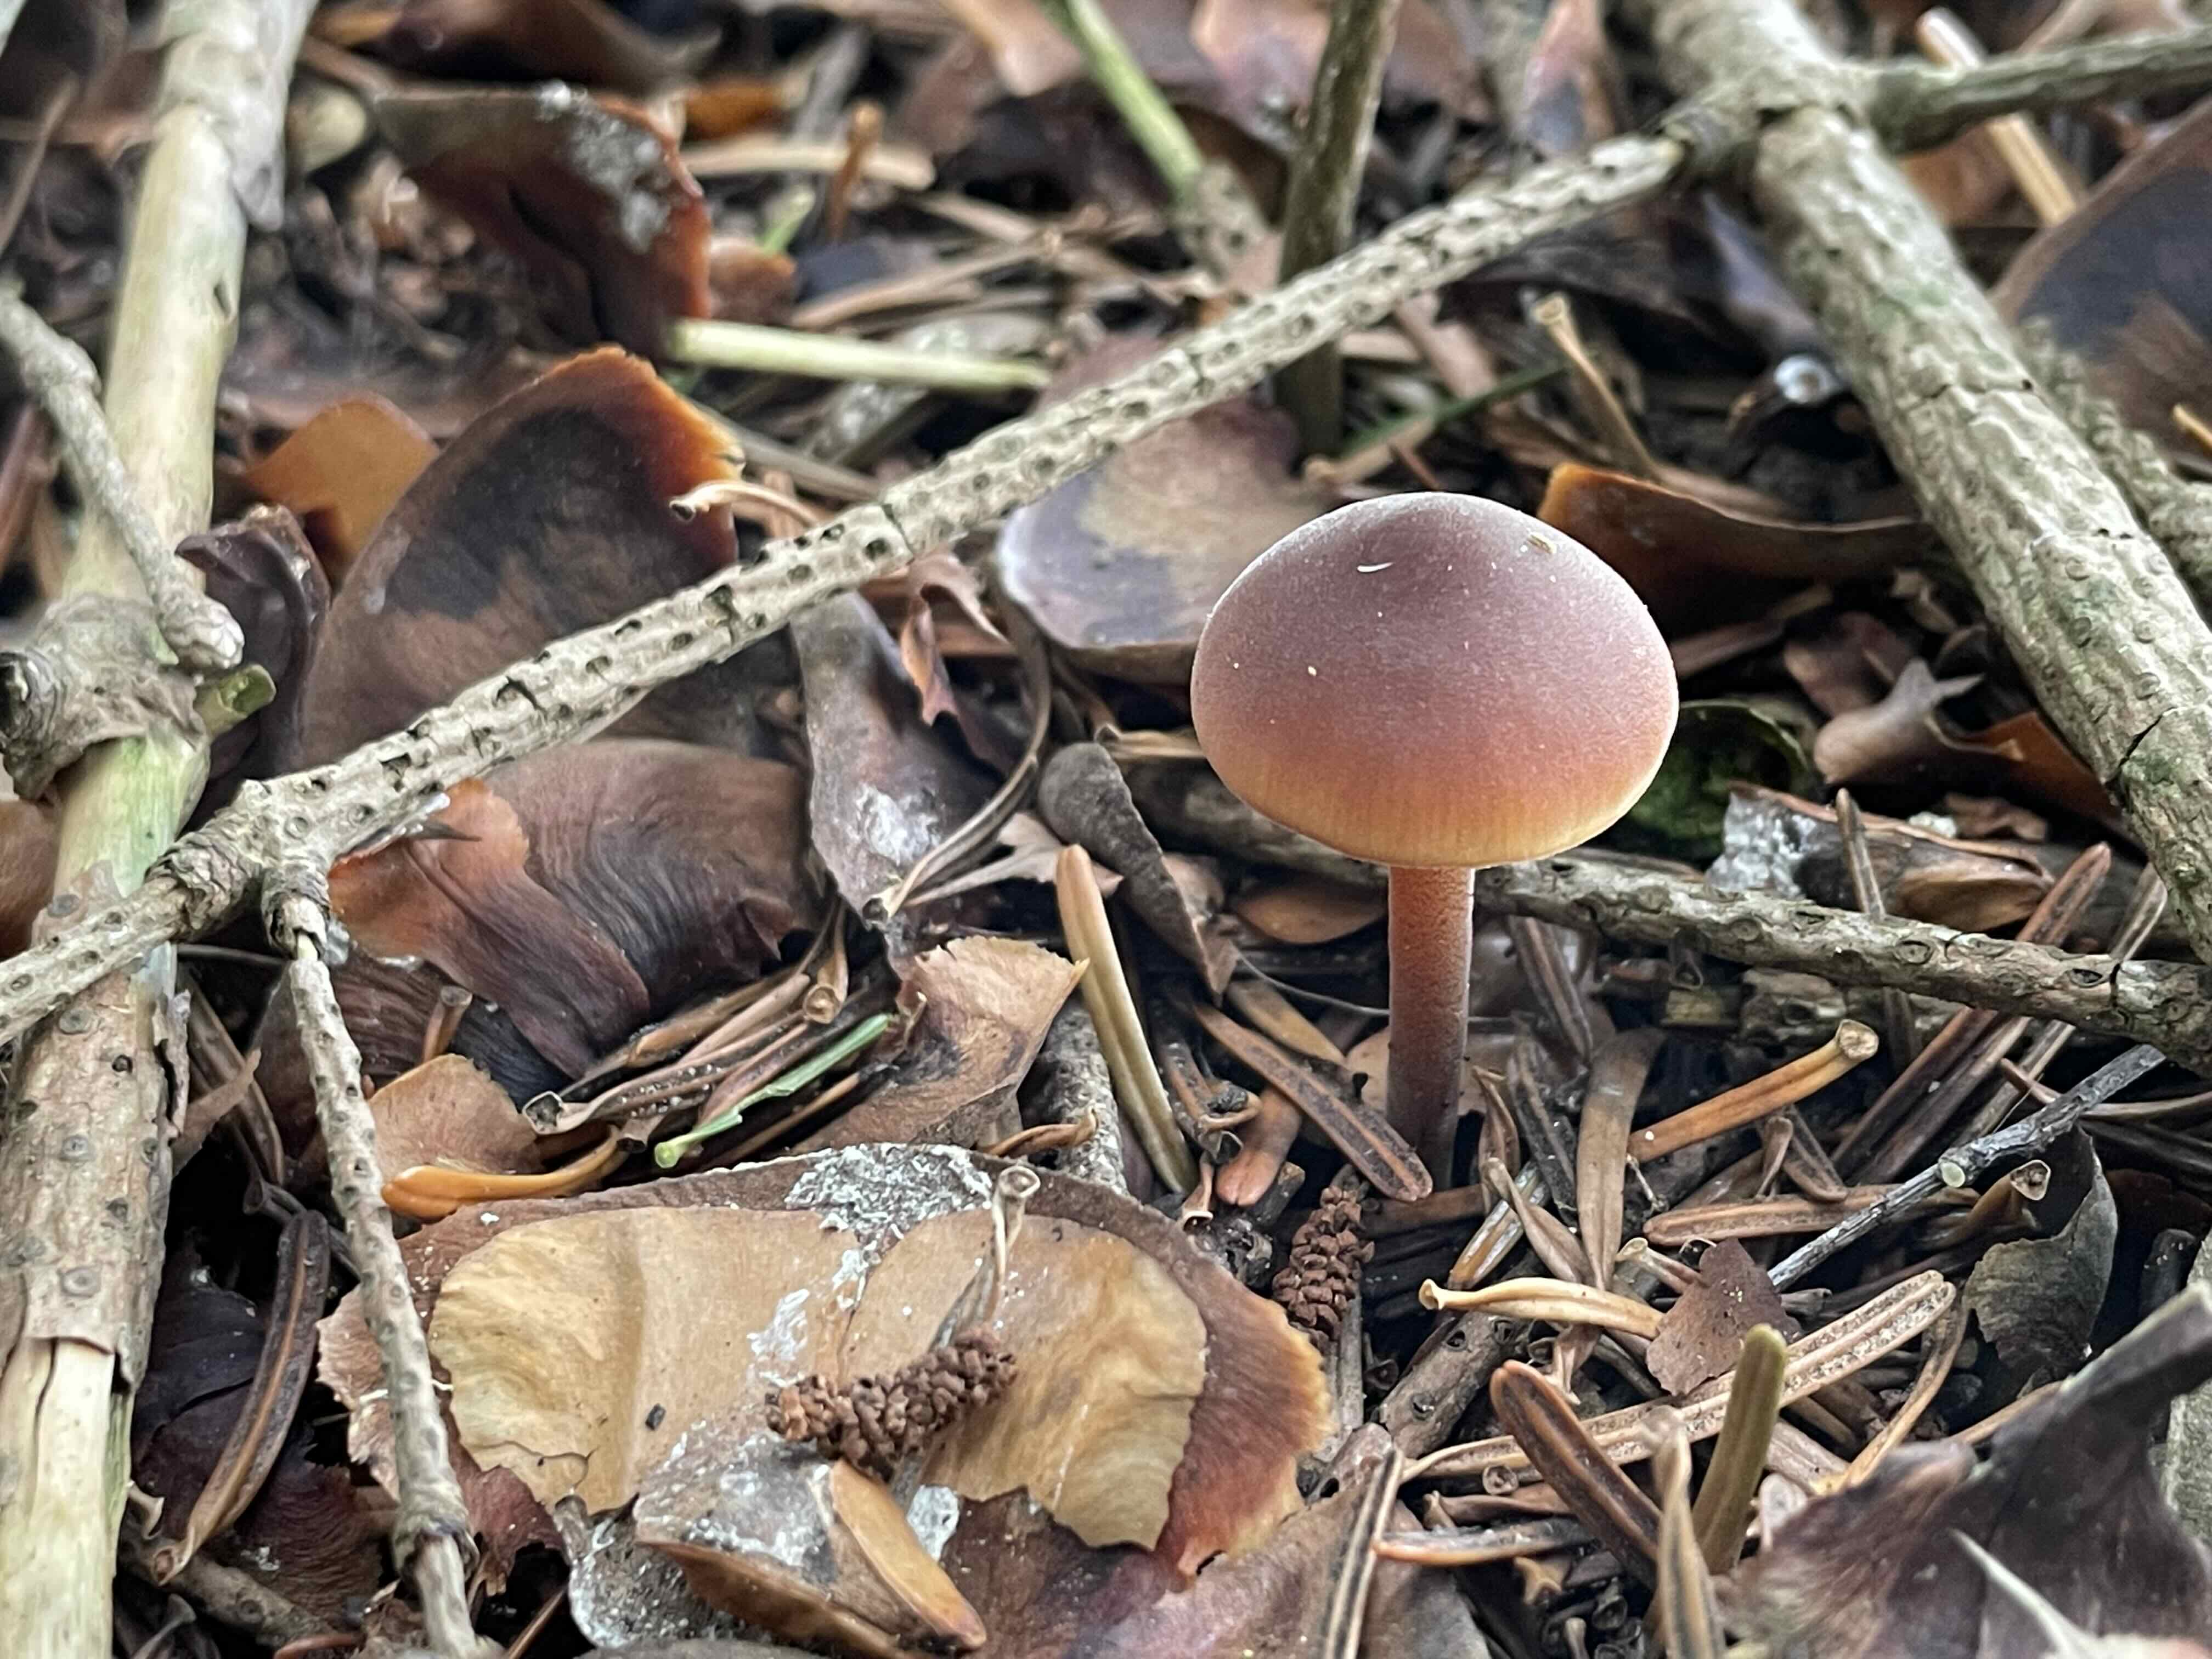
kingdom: Fungi
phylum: Basidiomycota
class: Agaricomycetes
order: Agaricales
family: Macrocystidiaceae
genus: Macrocystidia
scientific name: Macrocystidia cucumis
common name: agurkehat
